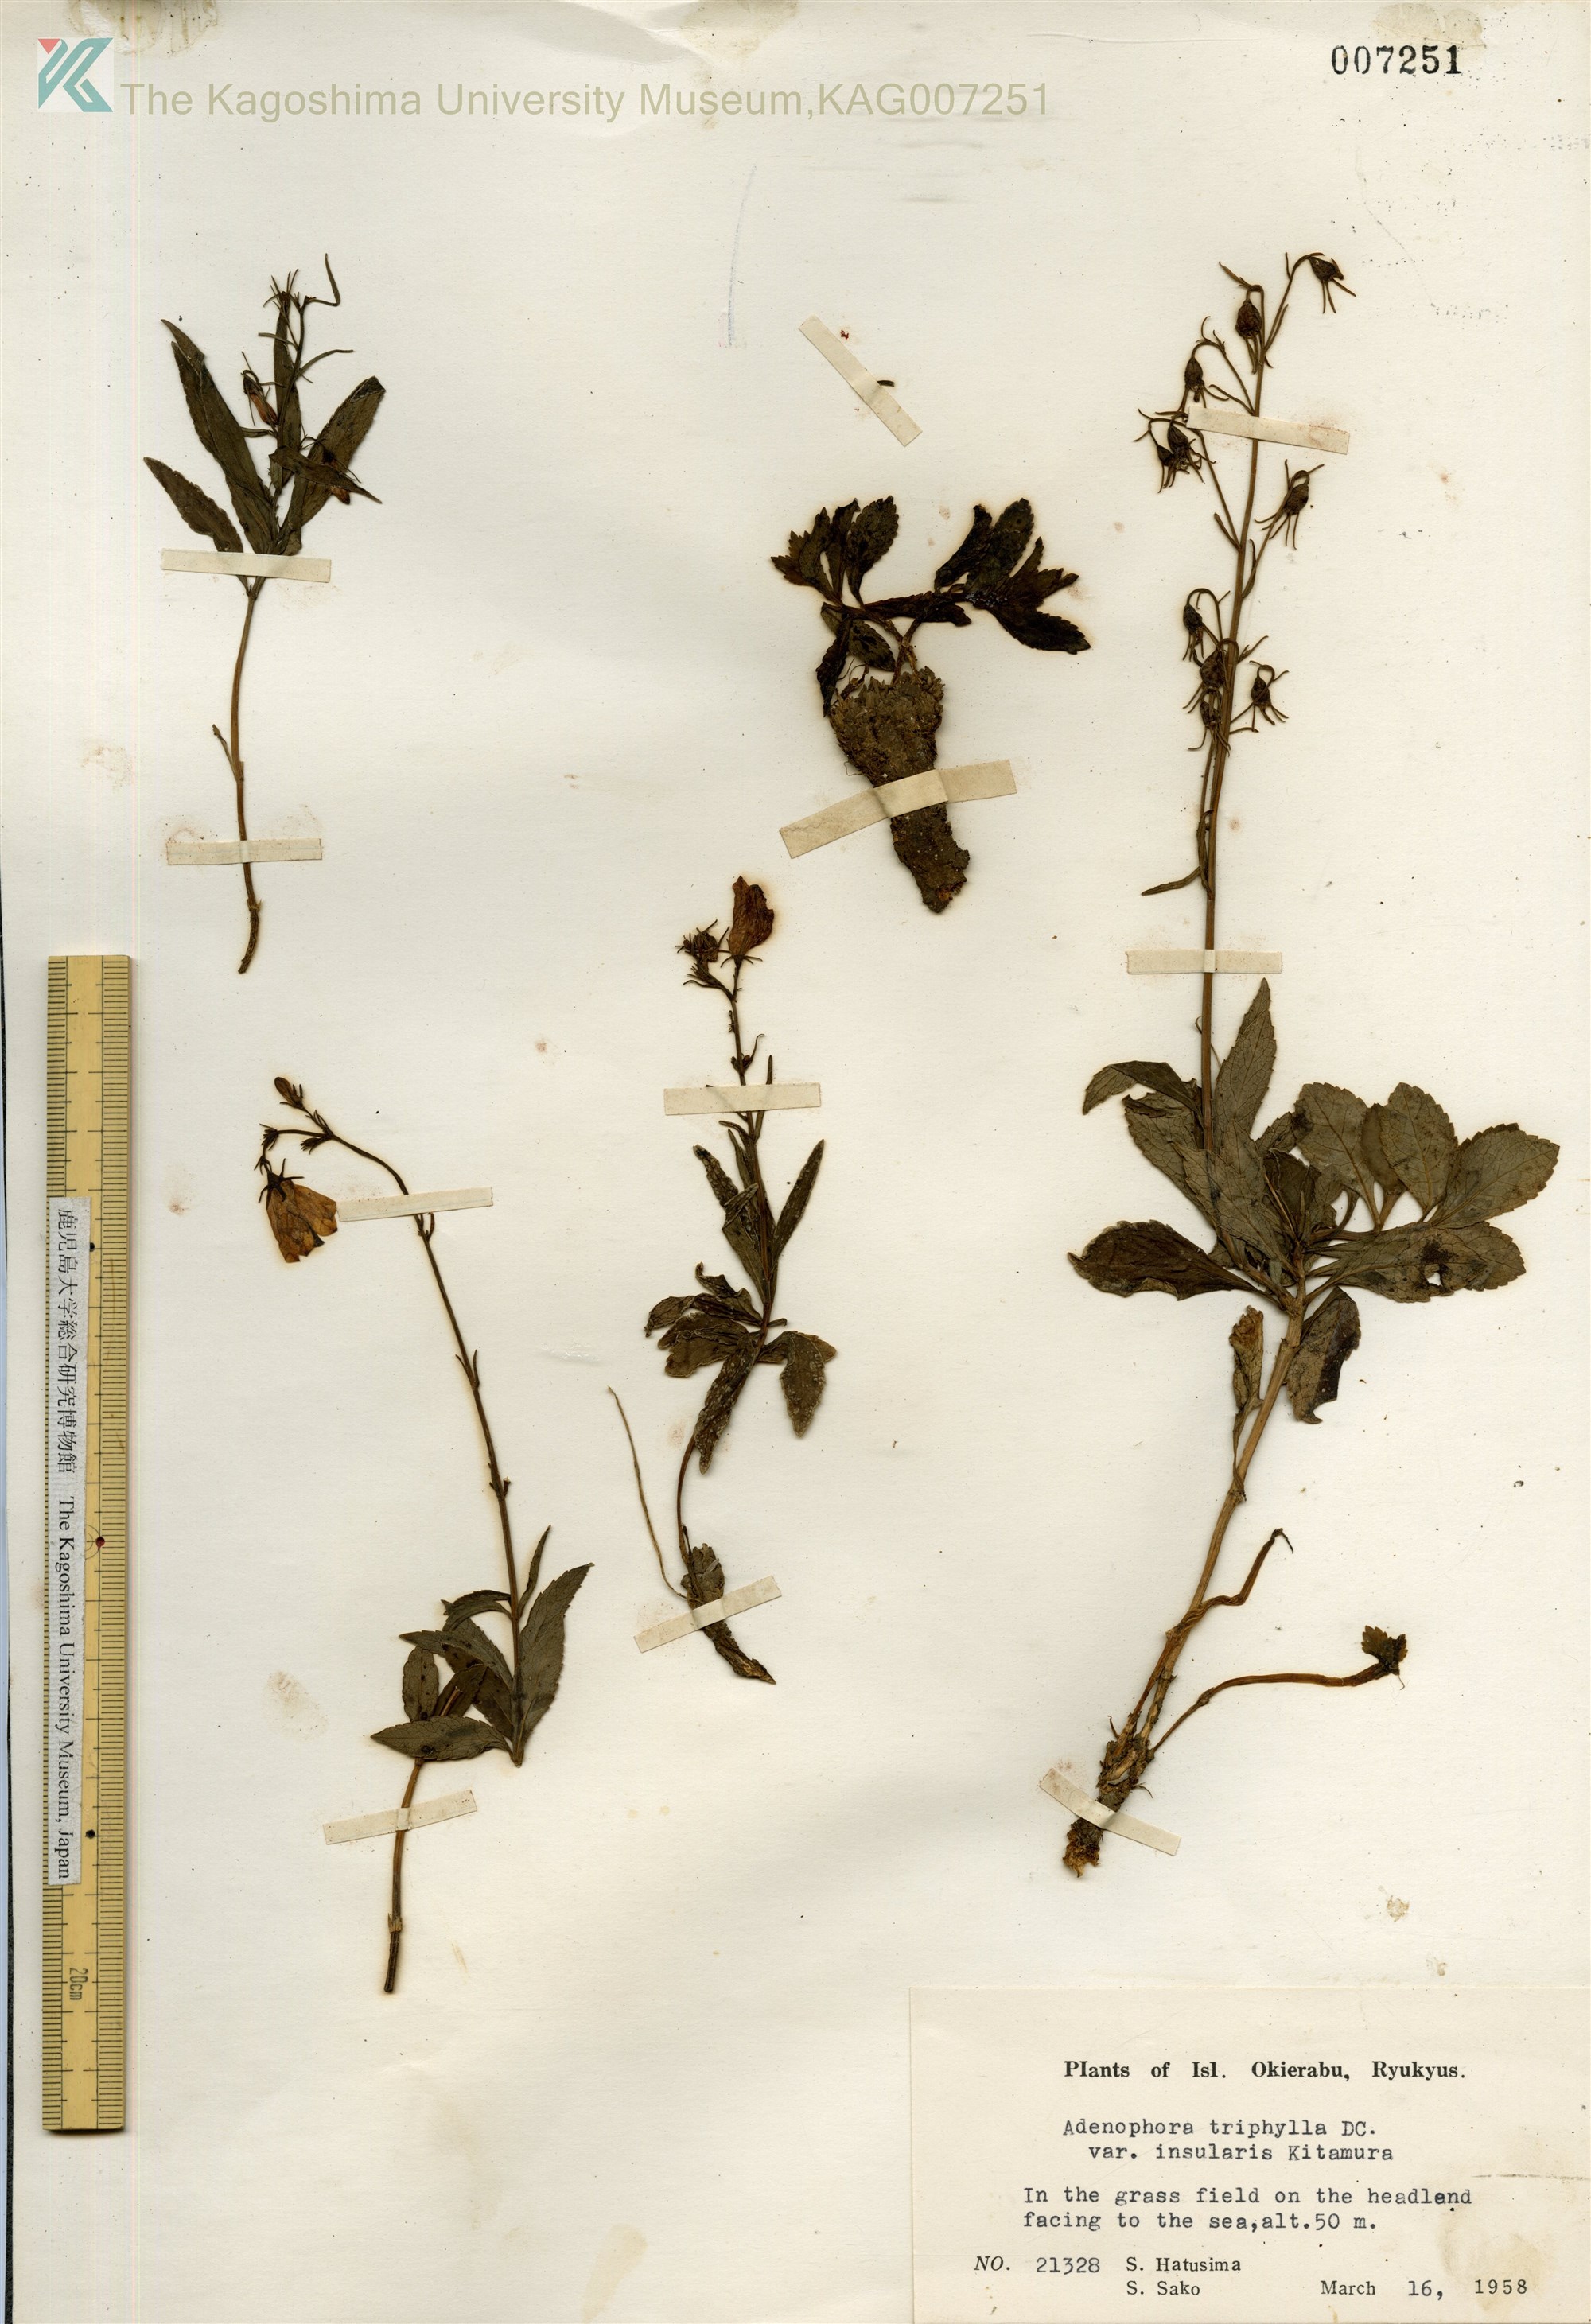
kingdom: Plantae
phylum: Tracheophyta
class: Magnoliopsida
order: Asterales
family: Campanulaceae
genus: Adenophora
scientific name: Adenophora tashiroi
